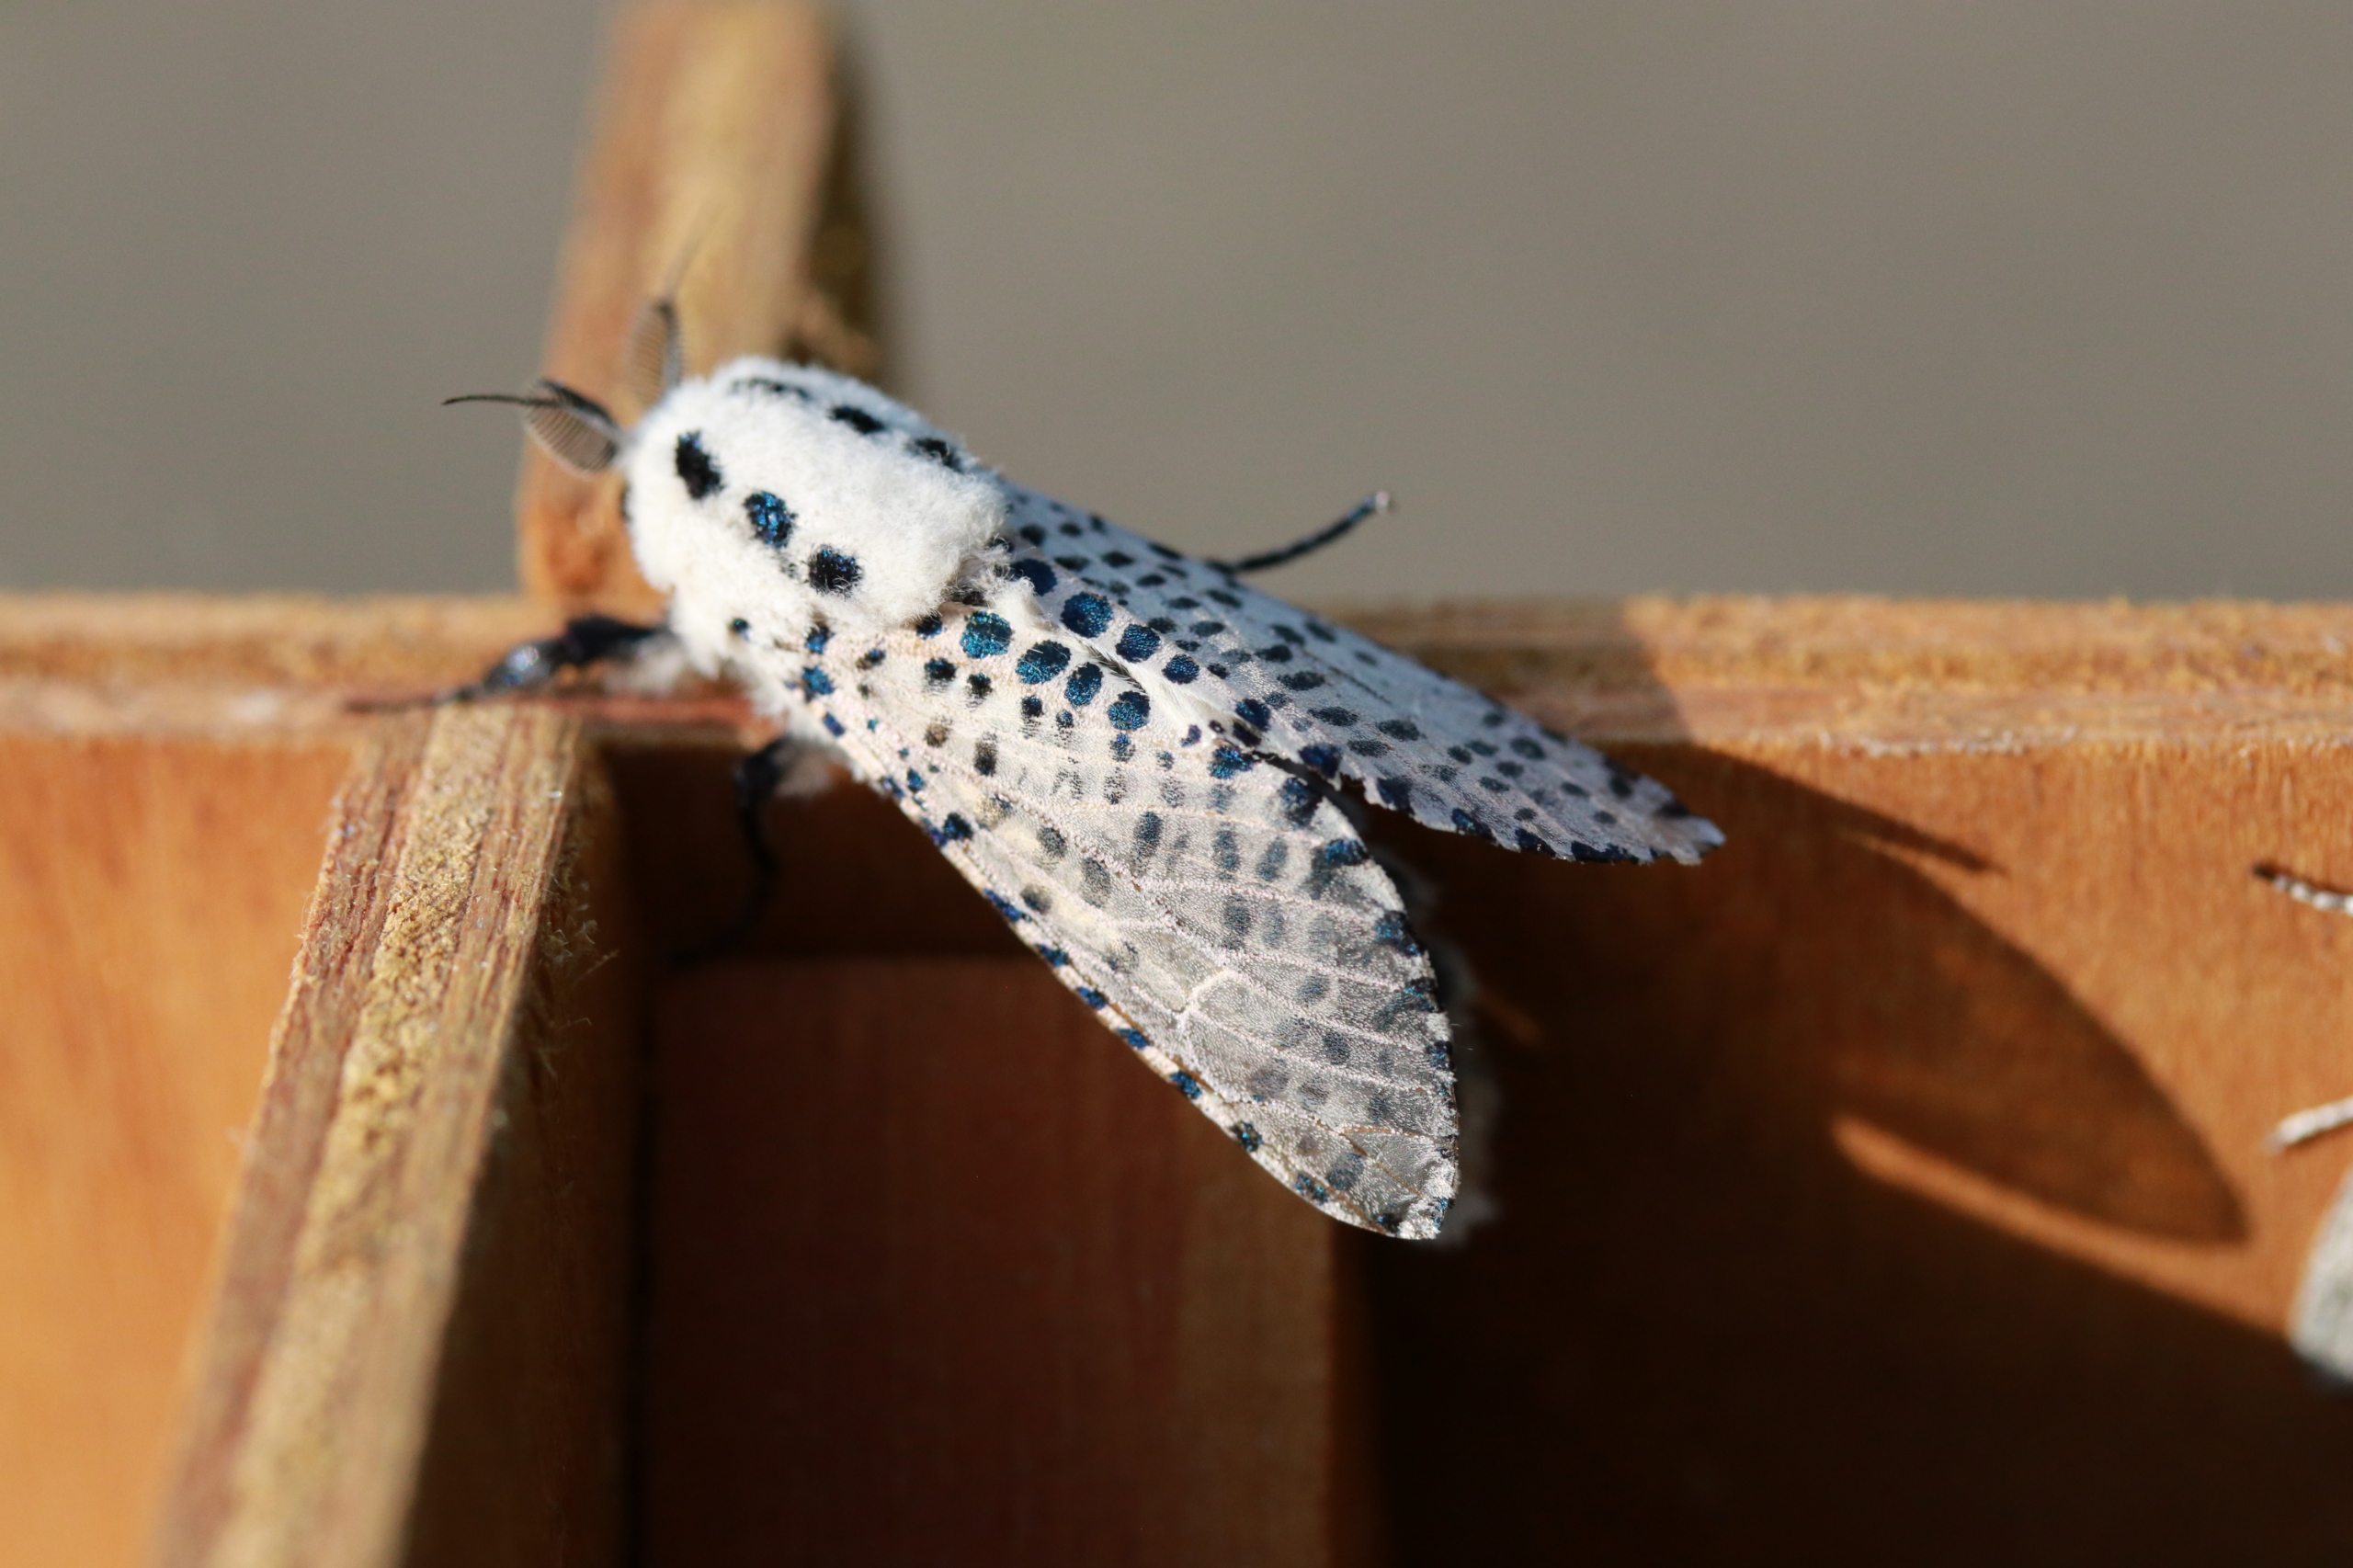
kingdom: Animalia
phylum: Arthropoda
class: Insecta
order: Lepidoptera
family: Cossidae
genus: Zeuzera
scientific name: Zeuzera pyrina
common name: Plettet træborer
